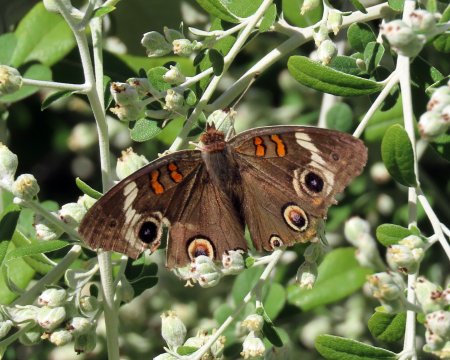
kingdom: Animalia
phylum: Arthropoda
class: Insecta
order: Lepidoptera
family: Nymphalidae
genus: Junonia
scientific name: Junonia coenia
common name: Common Buckeye
